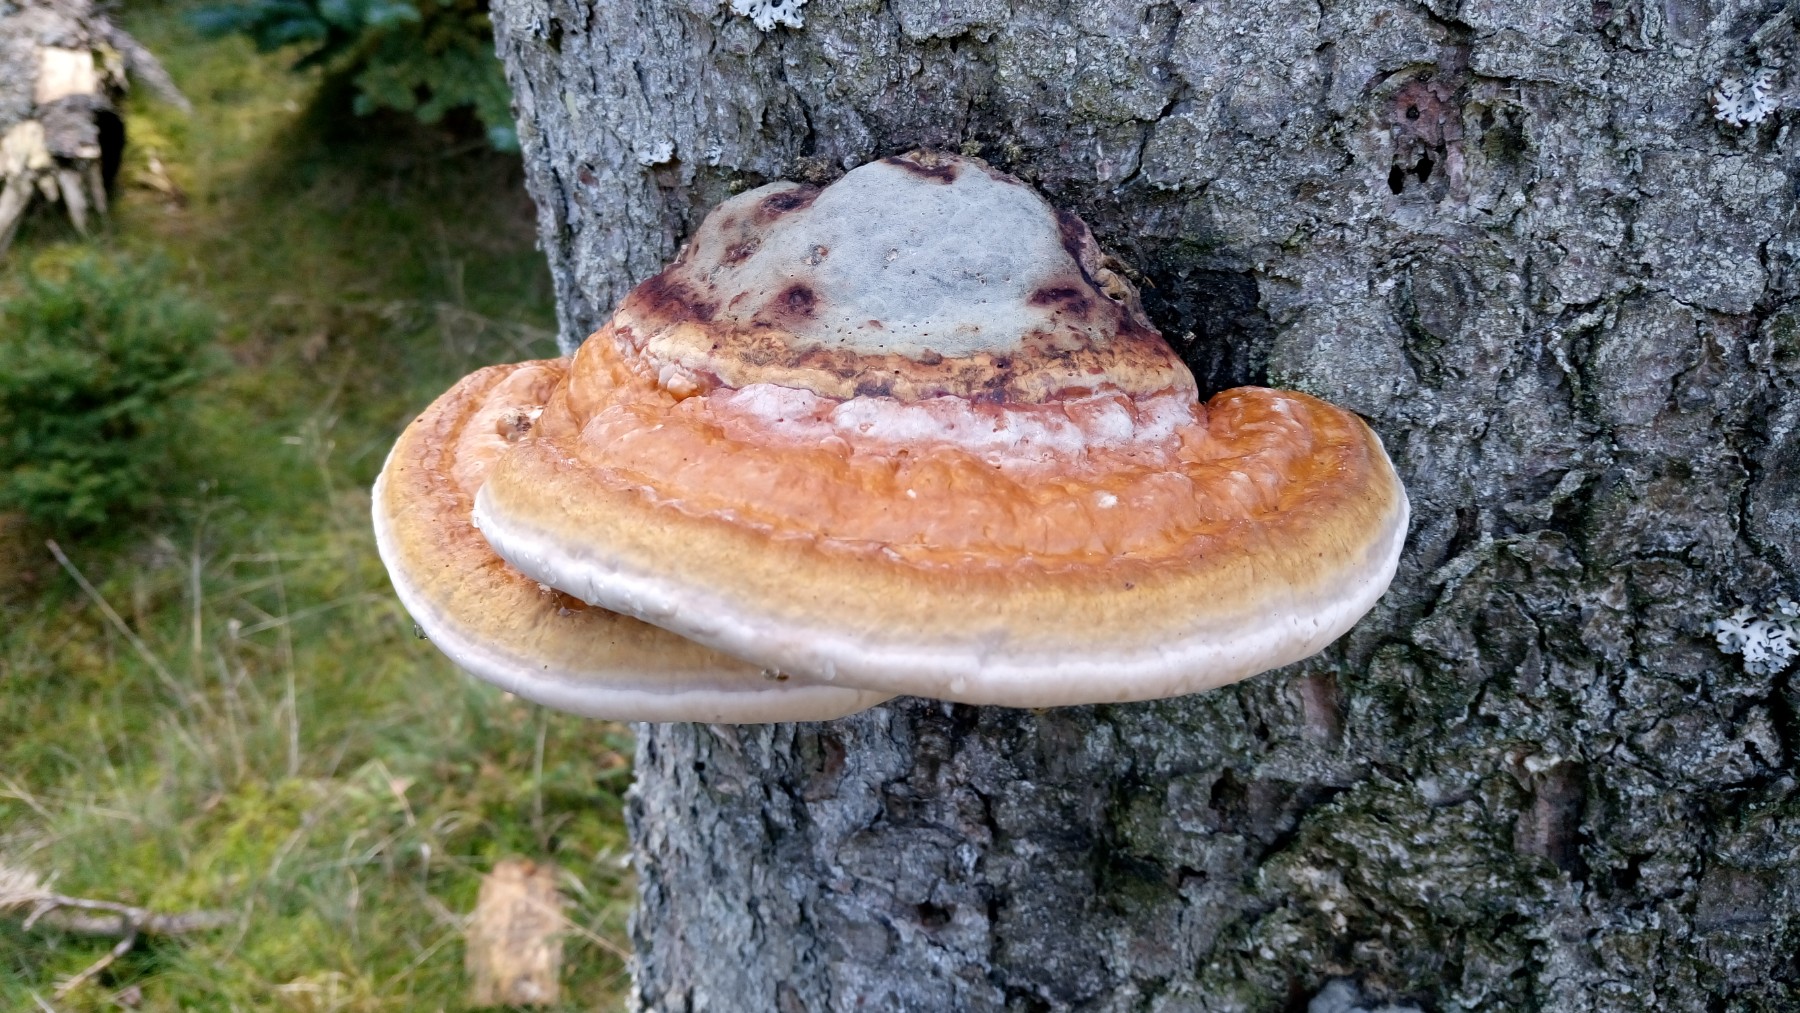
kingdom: Fungi
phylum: Basidiomycota
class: Agaricomycetes
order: Polyporales
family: Fomitopsidaceae
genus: Fomitopsis
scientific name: Fomitopsis pinicola
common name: randbæltet hovporesvamp
